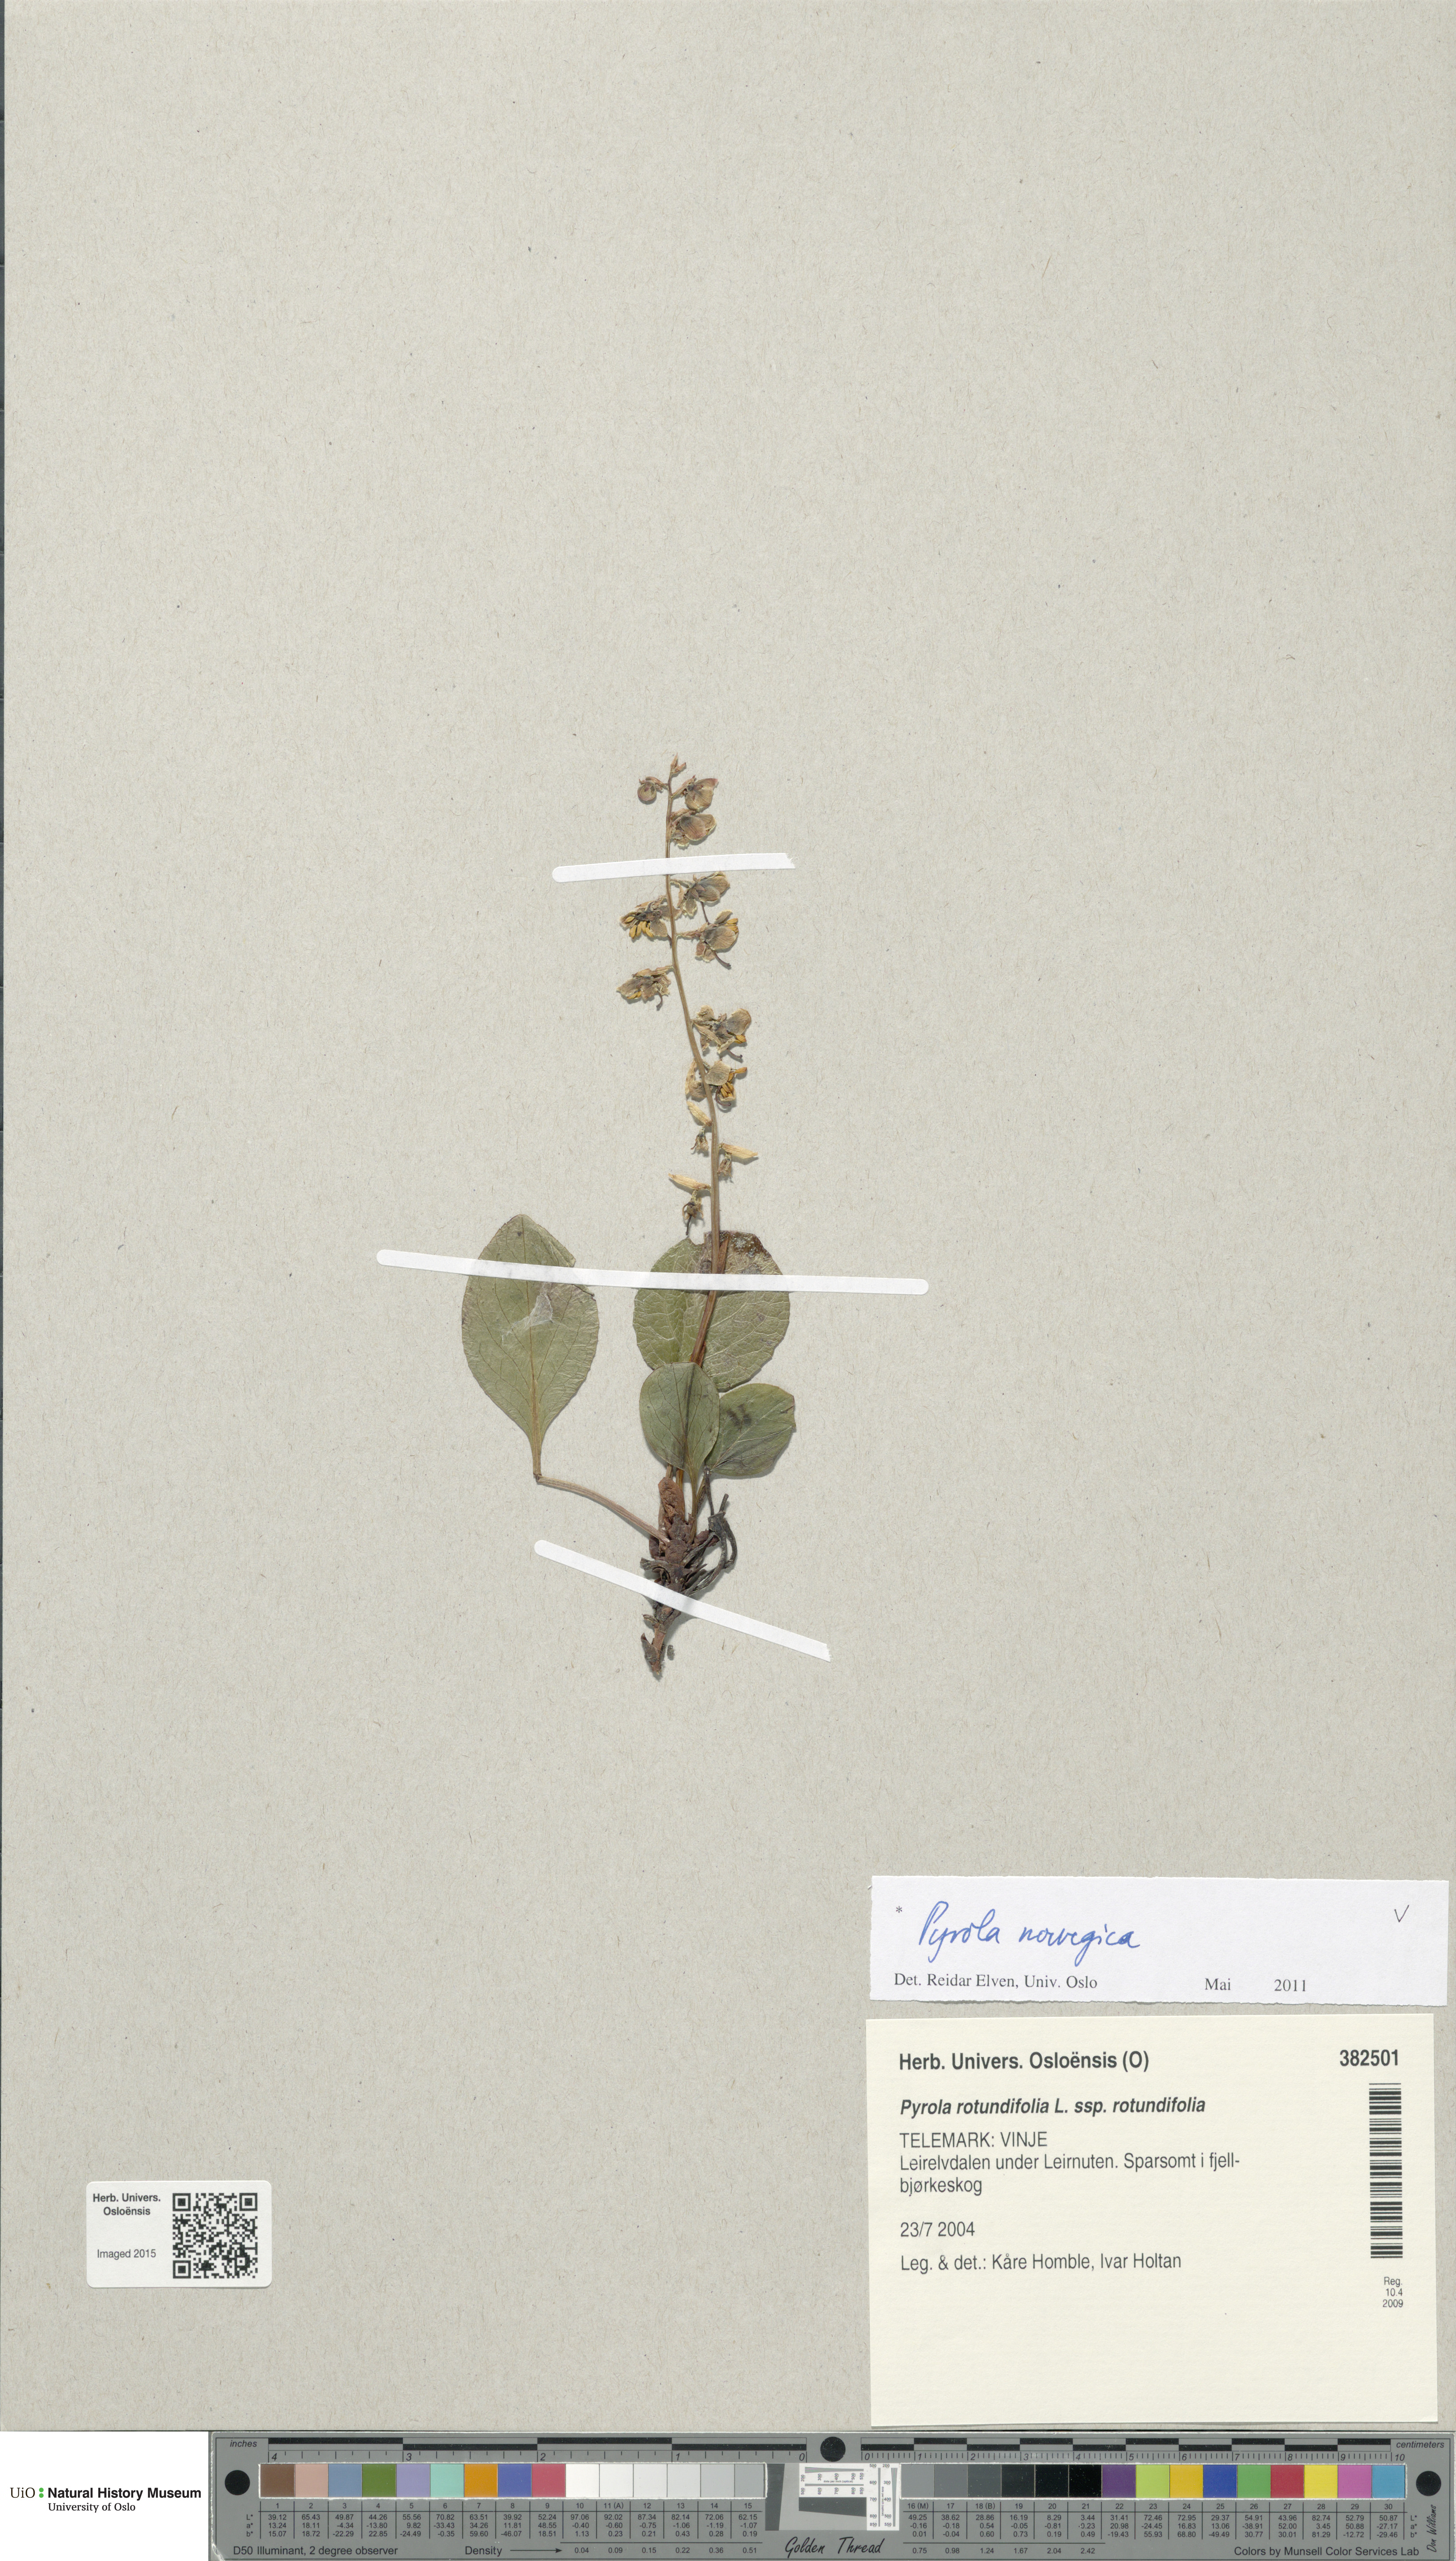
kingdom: Plantae
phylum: Tracheophyta
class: Magnoliopsida
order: Ericales
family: Ericaceae
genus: Pyrola
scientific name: Pyrola rotundifolia
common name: Round-leaved wintergreen
